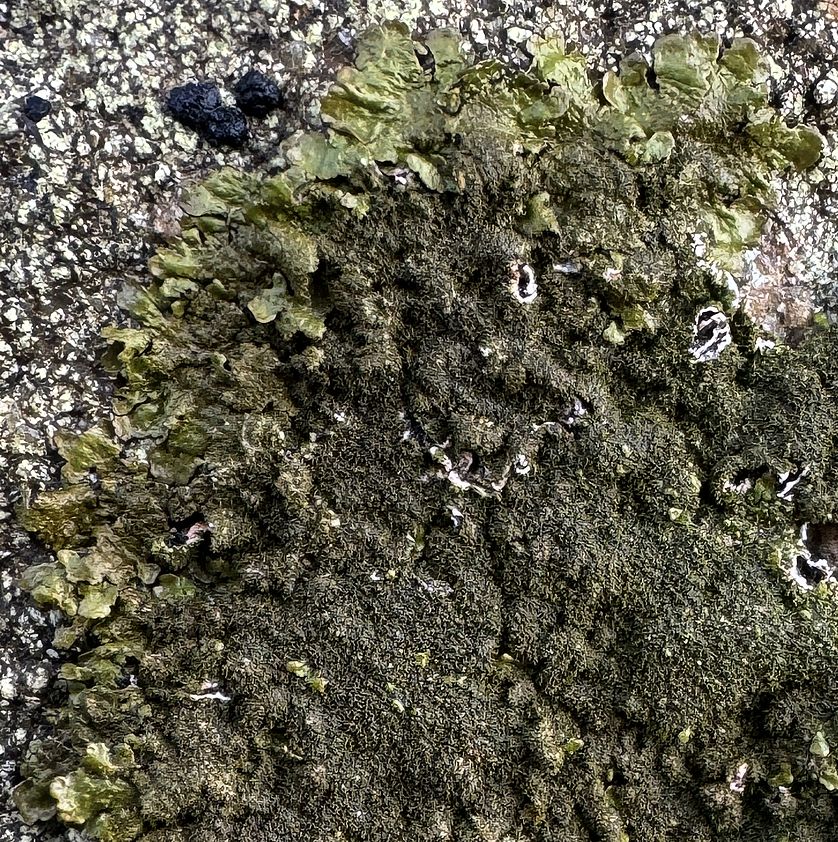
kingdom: Fungi
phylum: Ascomycota
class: Lecanoromycetes
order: Lecanorales
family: Parmeliaceae
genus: Xanthoparmelia
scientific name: Xanthoparmelia verruculifera
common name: småknoppet skållav
